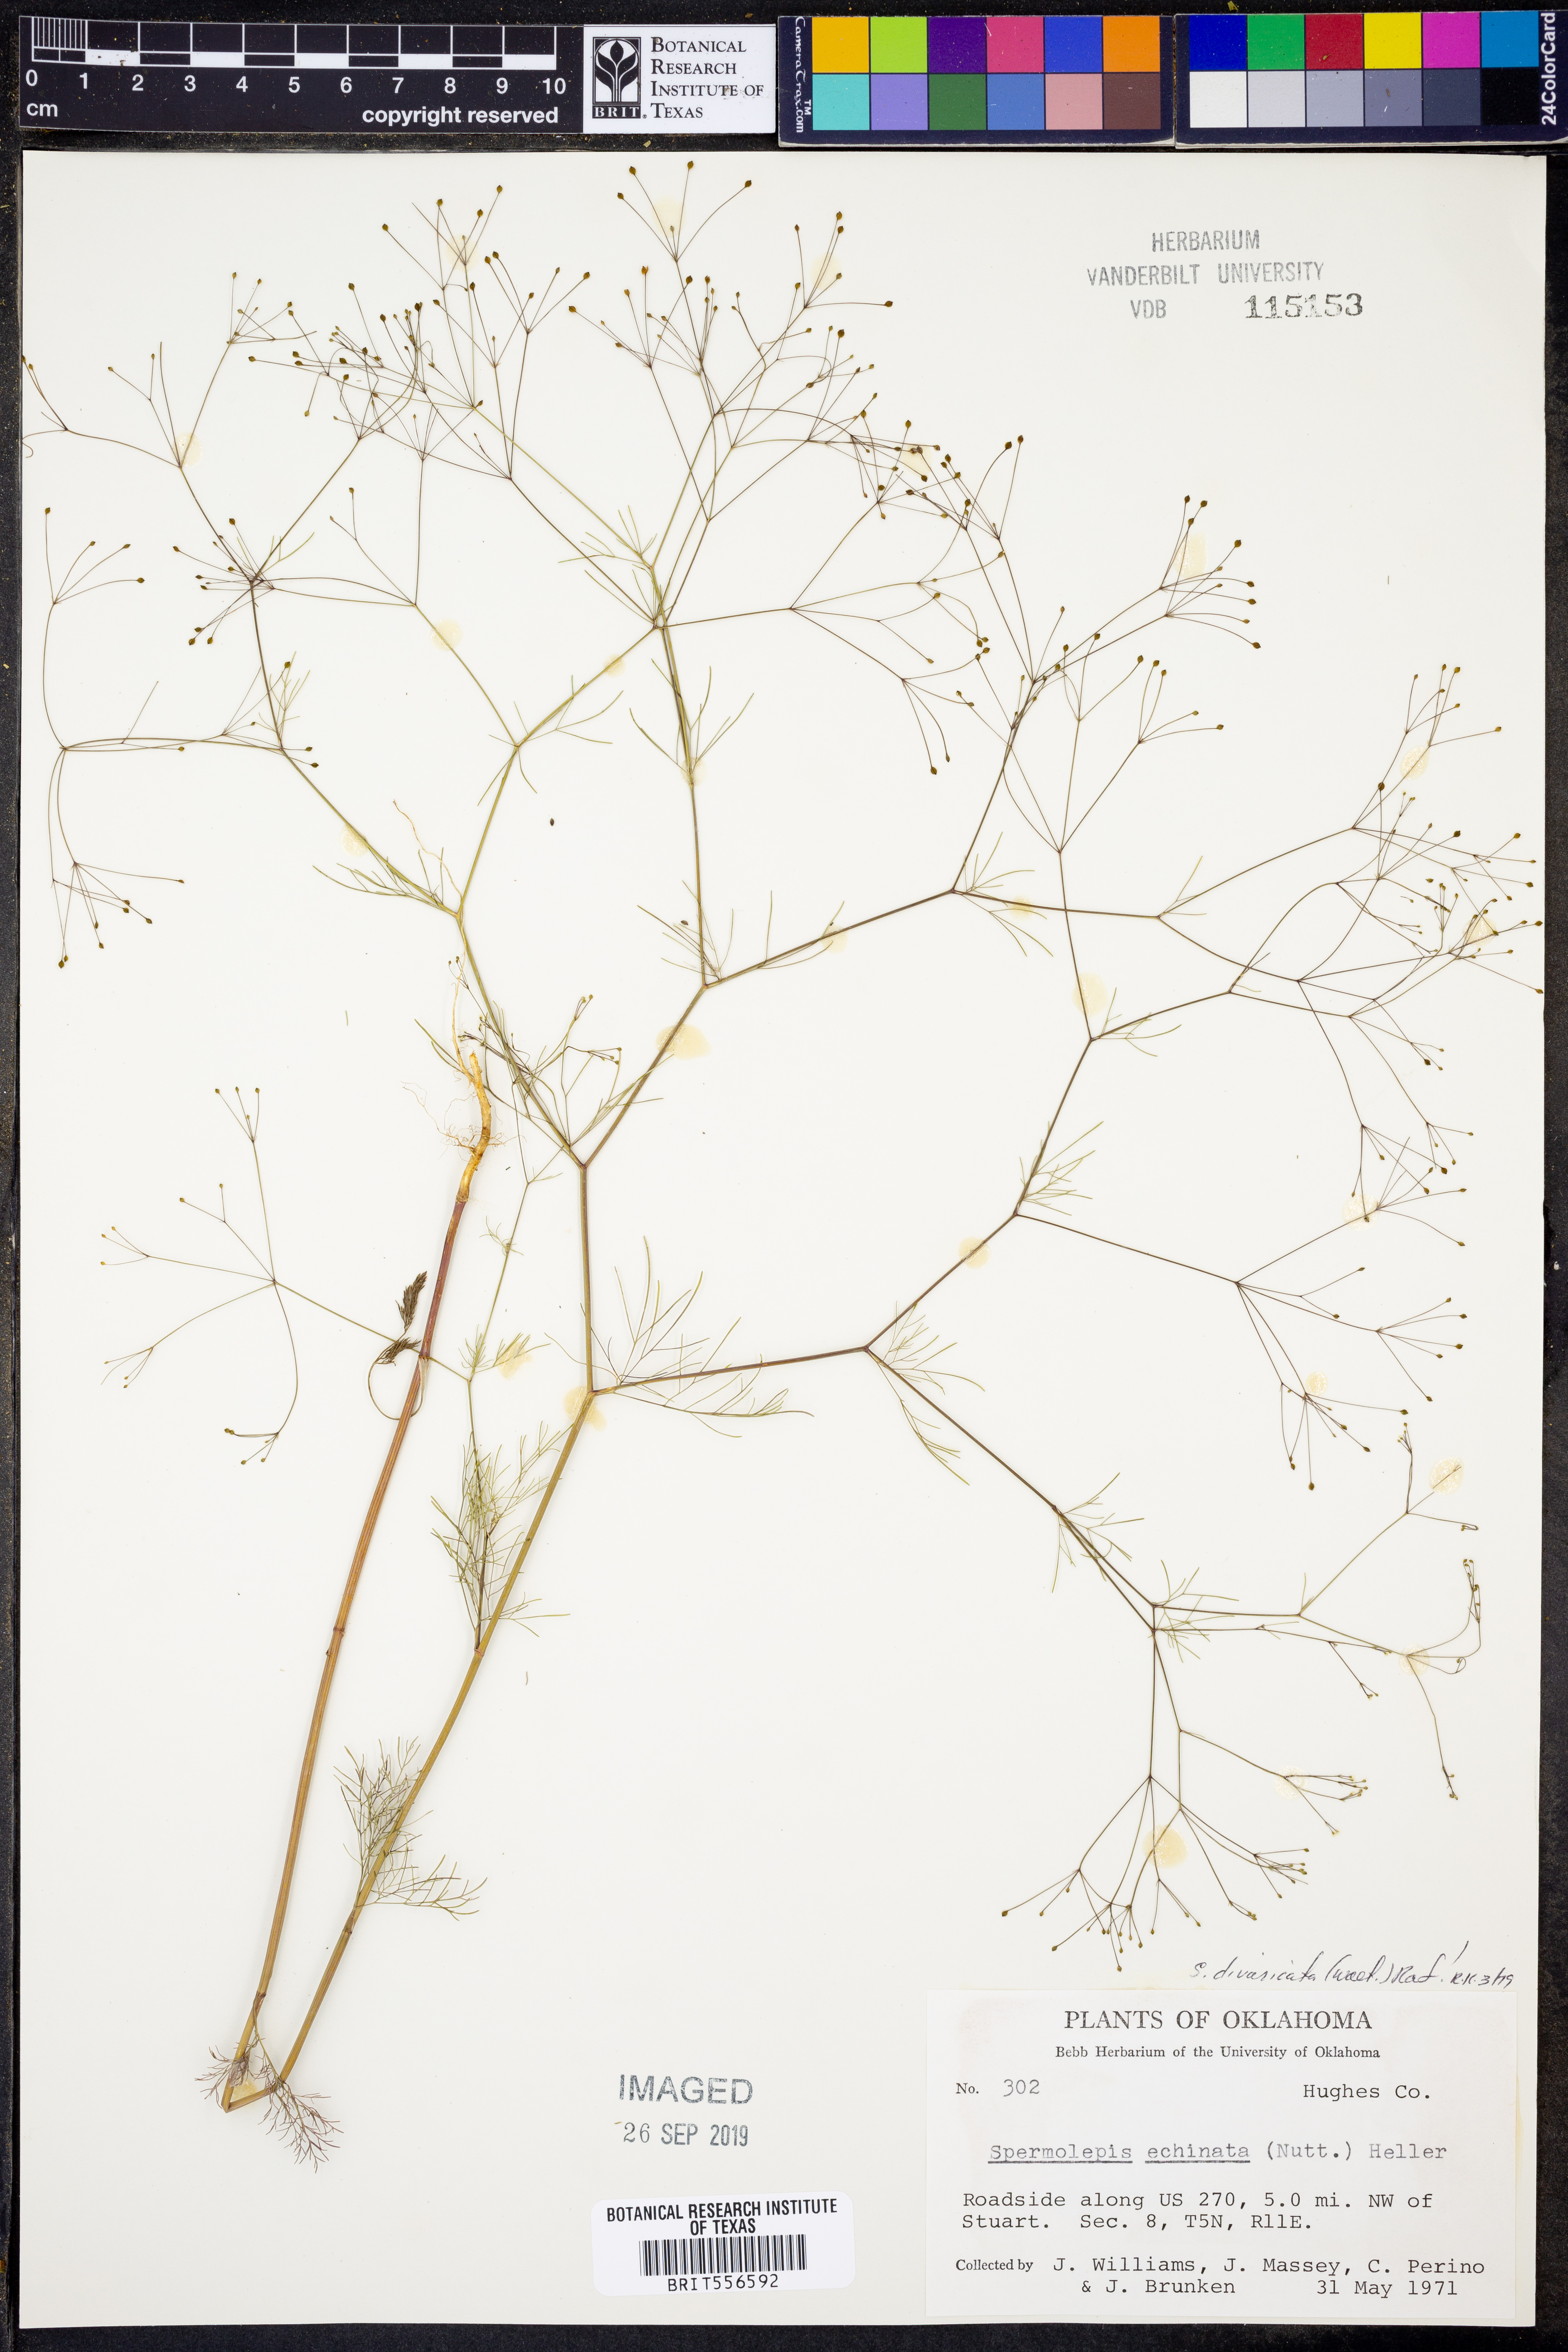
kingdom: Plantae
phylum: Tracheophyta
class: Magnoliopsida
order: Apiales
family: Apiaceae
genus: Spermolepis
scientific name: Spermolepis divaricata
